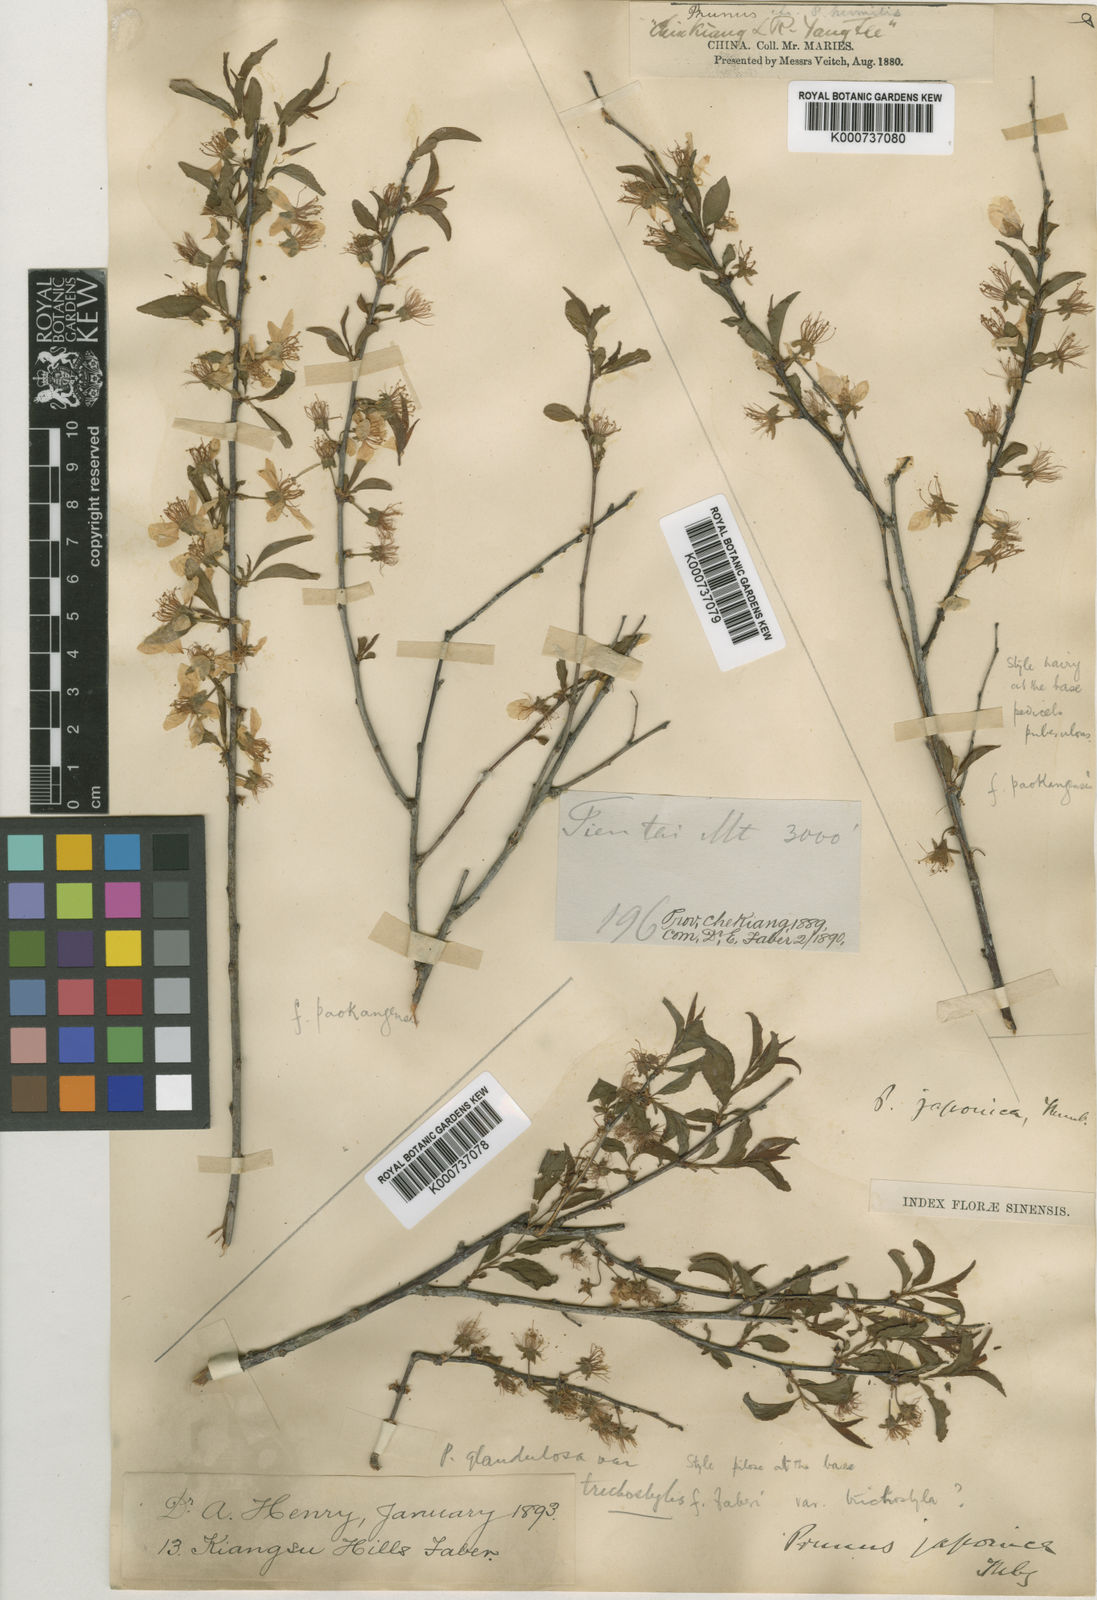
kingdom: Plantae
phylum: Tracheophyta
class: Magnoliopsida
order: Rosales
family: Rosaceae
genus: Prunus
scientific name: Prunus glandulosa
